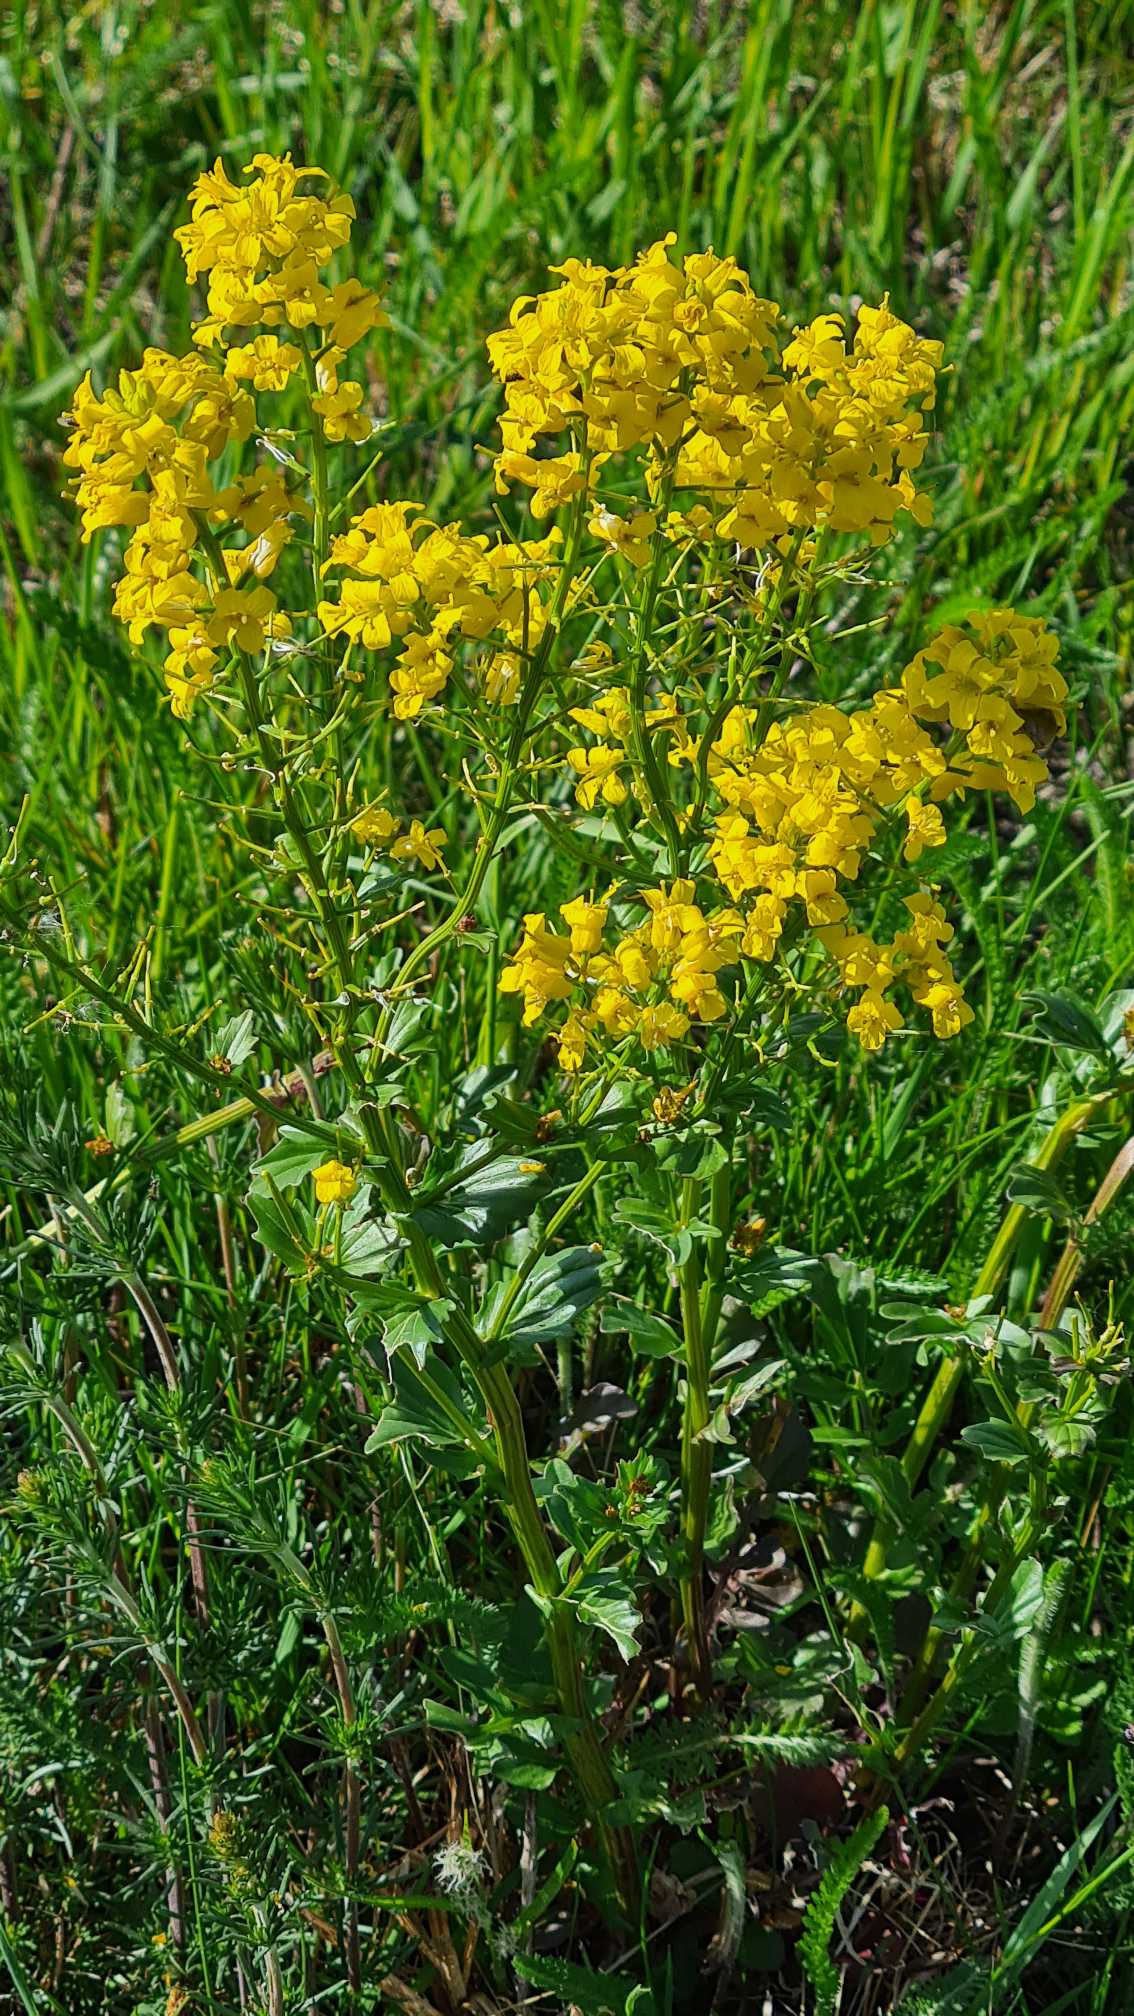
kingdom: Plantae
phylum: Tracheophyta
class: Magnoliopsida
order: Brassicales
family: Brassicaceae
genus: Barbarea
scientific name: Barbarea vulgaris
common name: Udspærret vinterkarse
